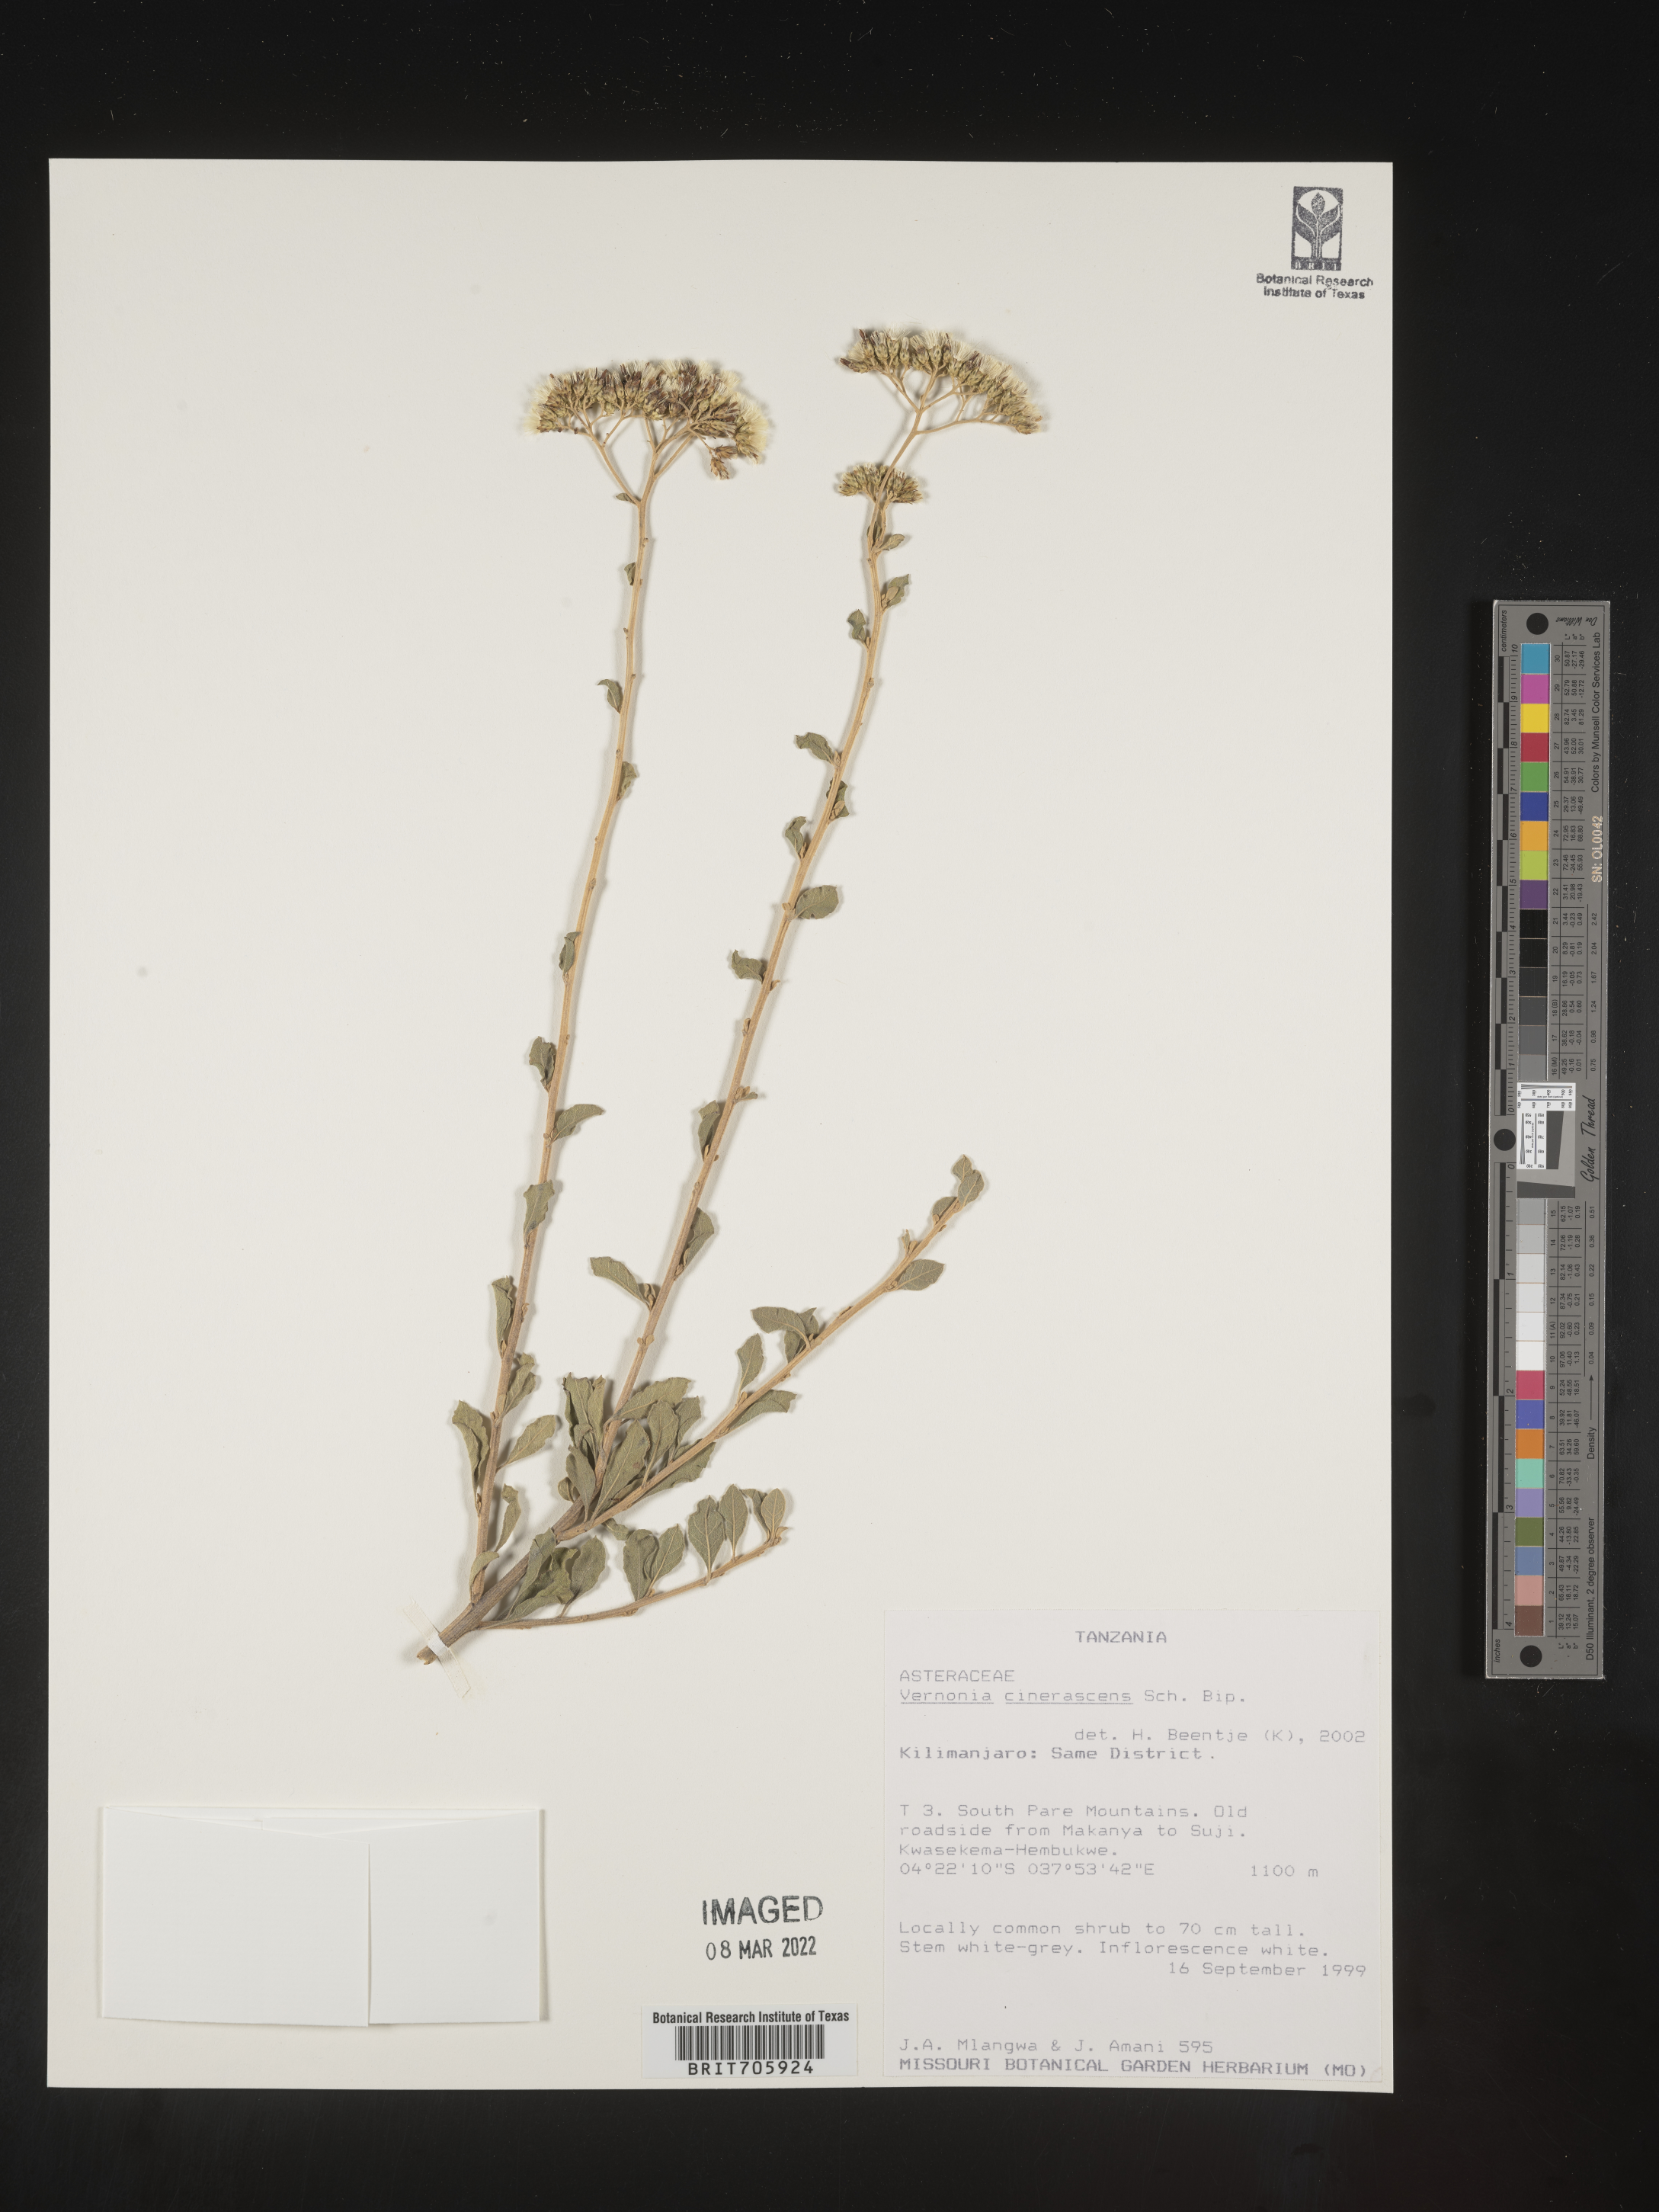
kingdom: Plantae
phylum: Tracheophyta
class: Magnoliopsida
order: Asterales
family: Asteraceae
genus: Vernonia
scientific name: Vernonia
